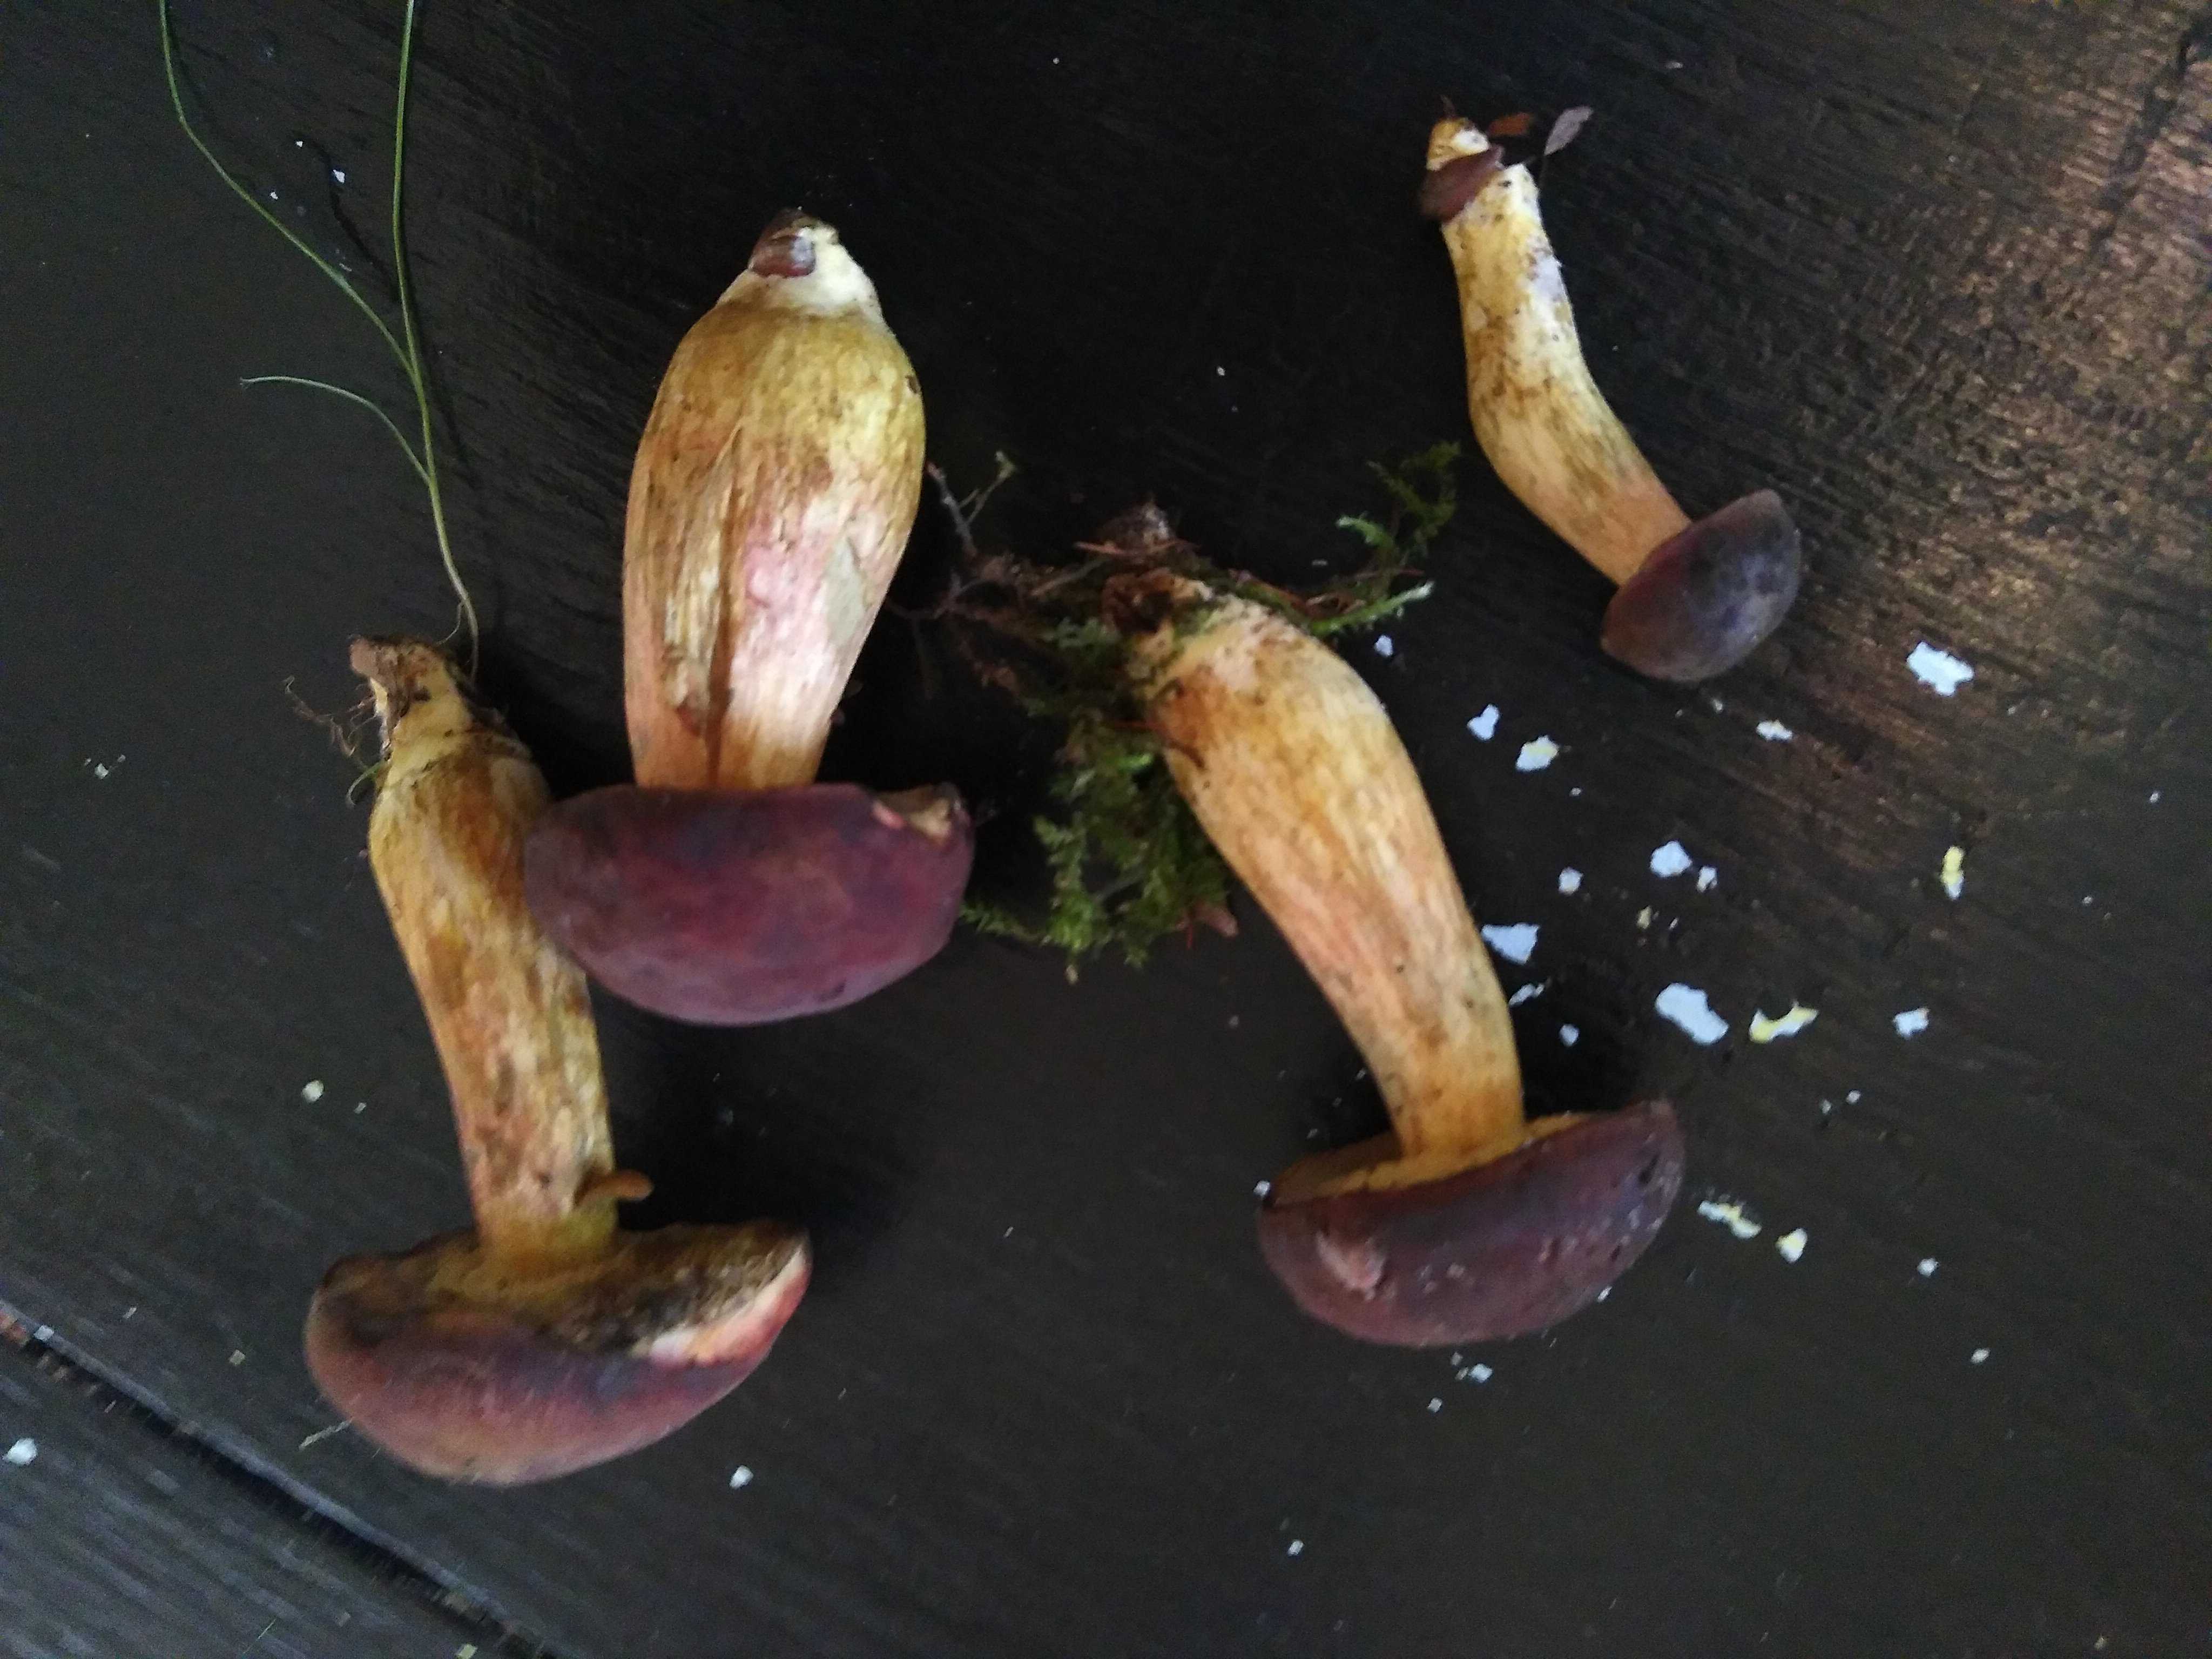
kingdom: Fungi
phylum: Basidiomycota
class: Agaricomycetes
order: Boletales
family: Boletaceae
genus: Xerocomus
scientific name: Xerocomus
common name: filtrørhat
